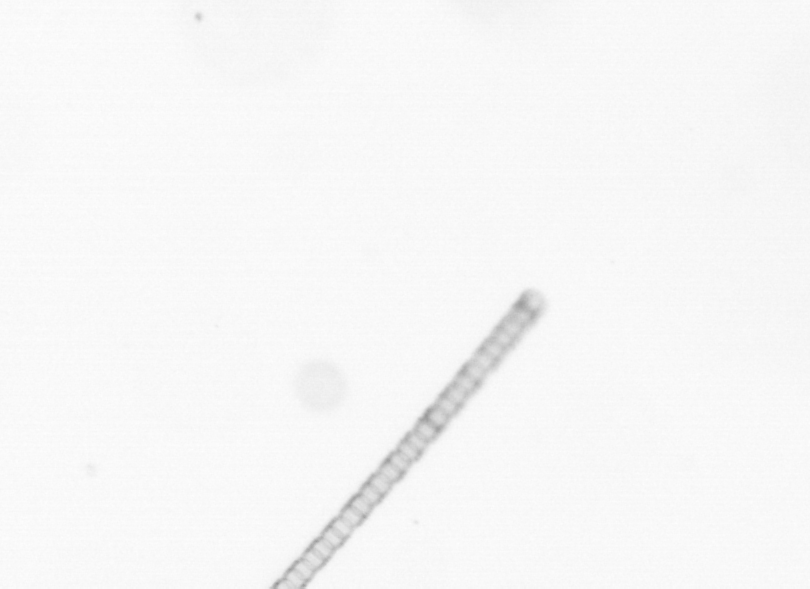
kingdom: Chromista
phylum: Ochrophyta
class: Bacillariophyceae
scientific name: Bacillariophyceae
